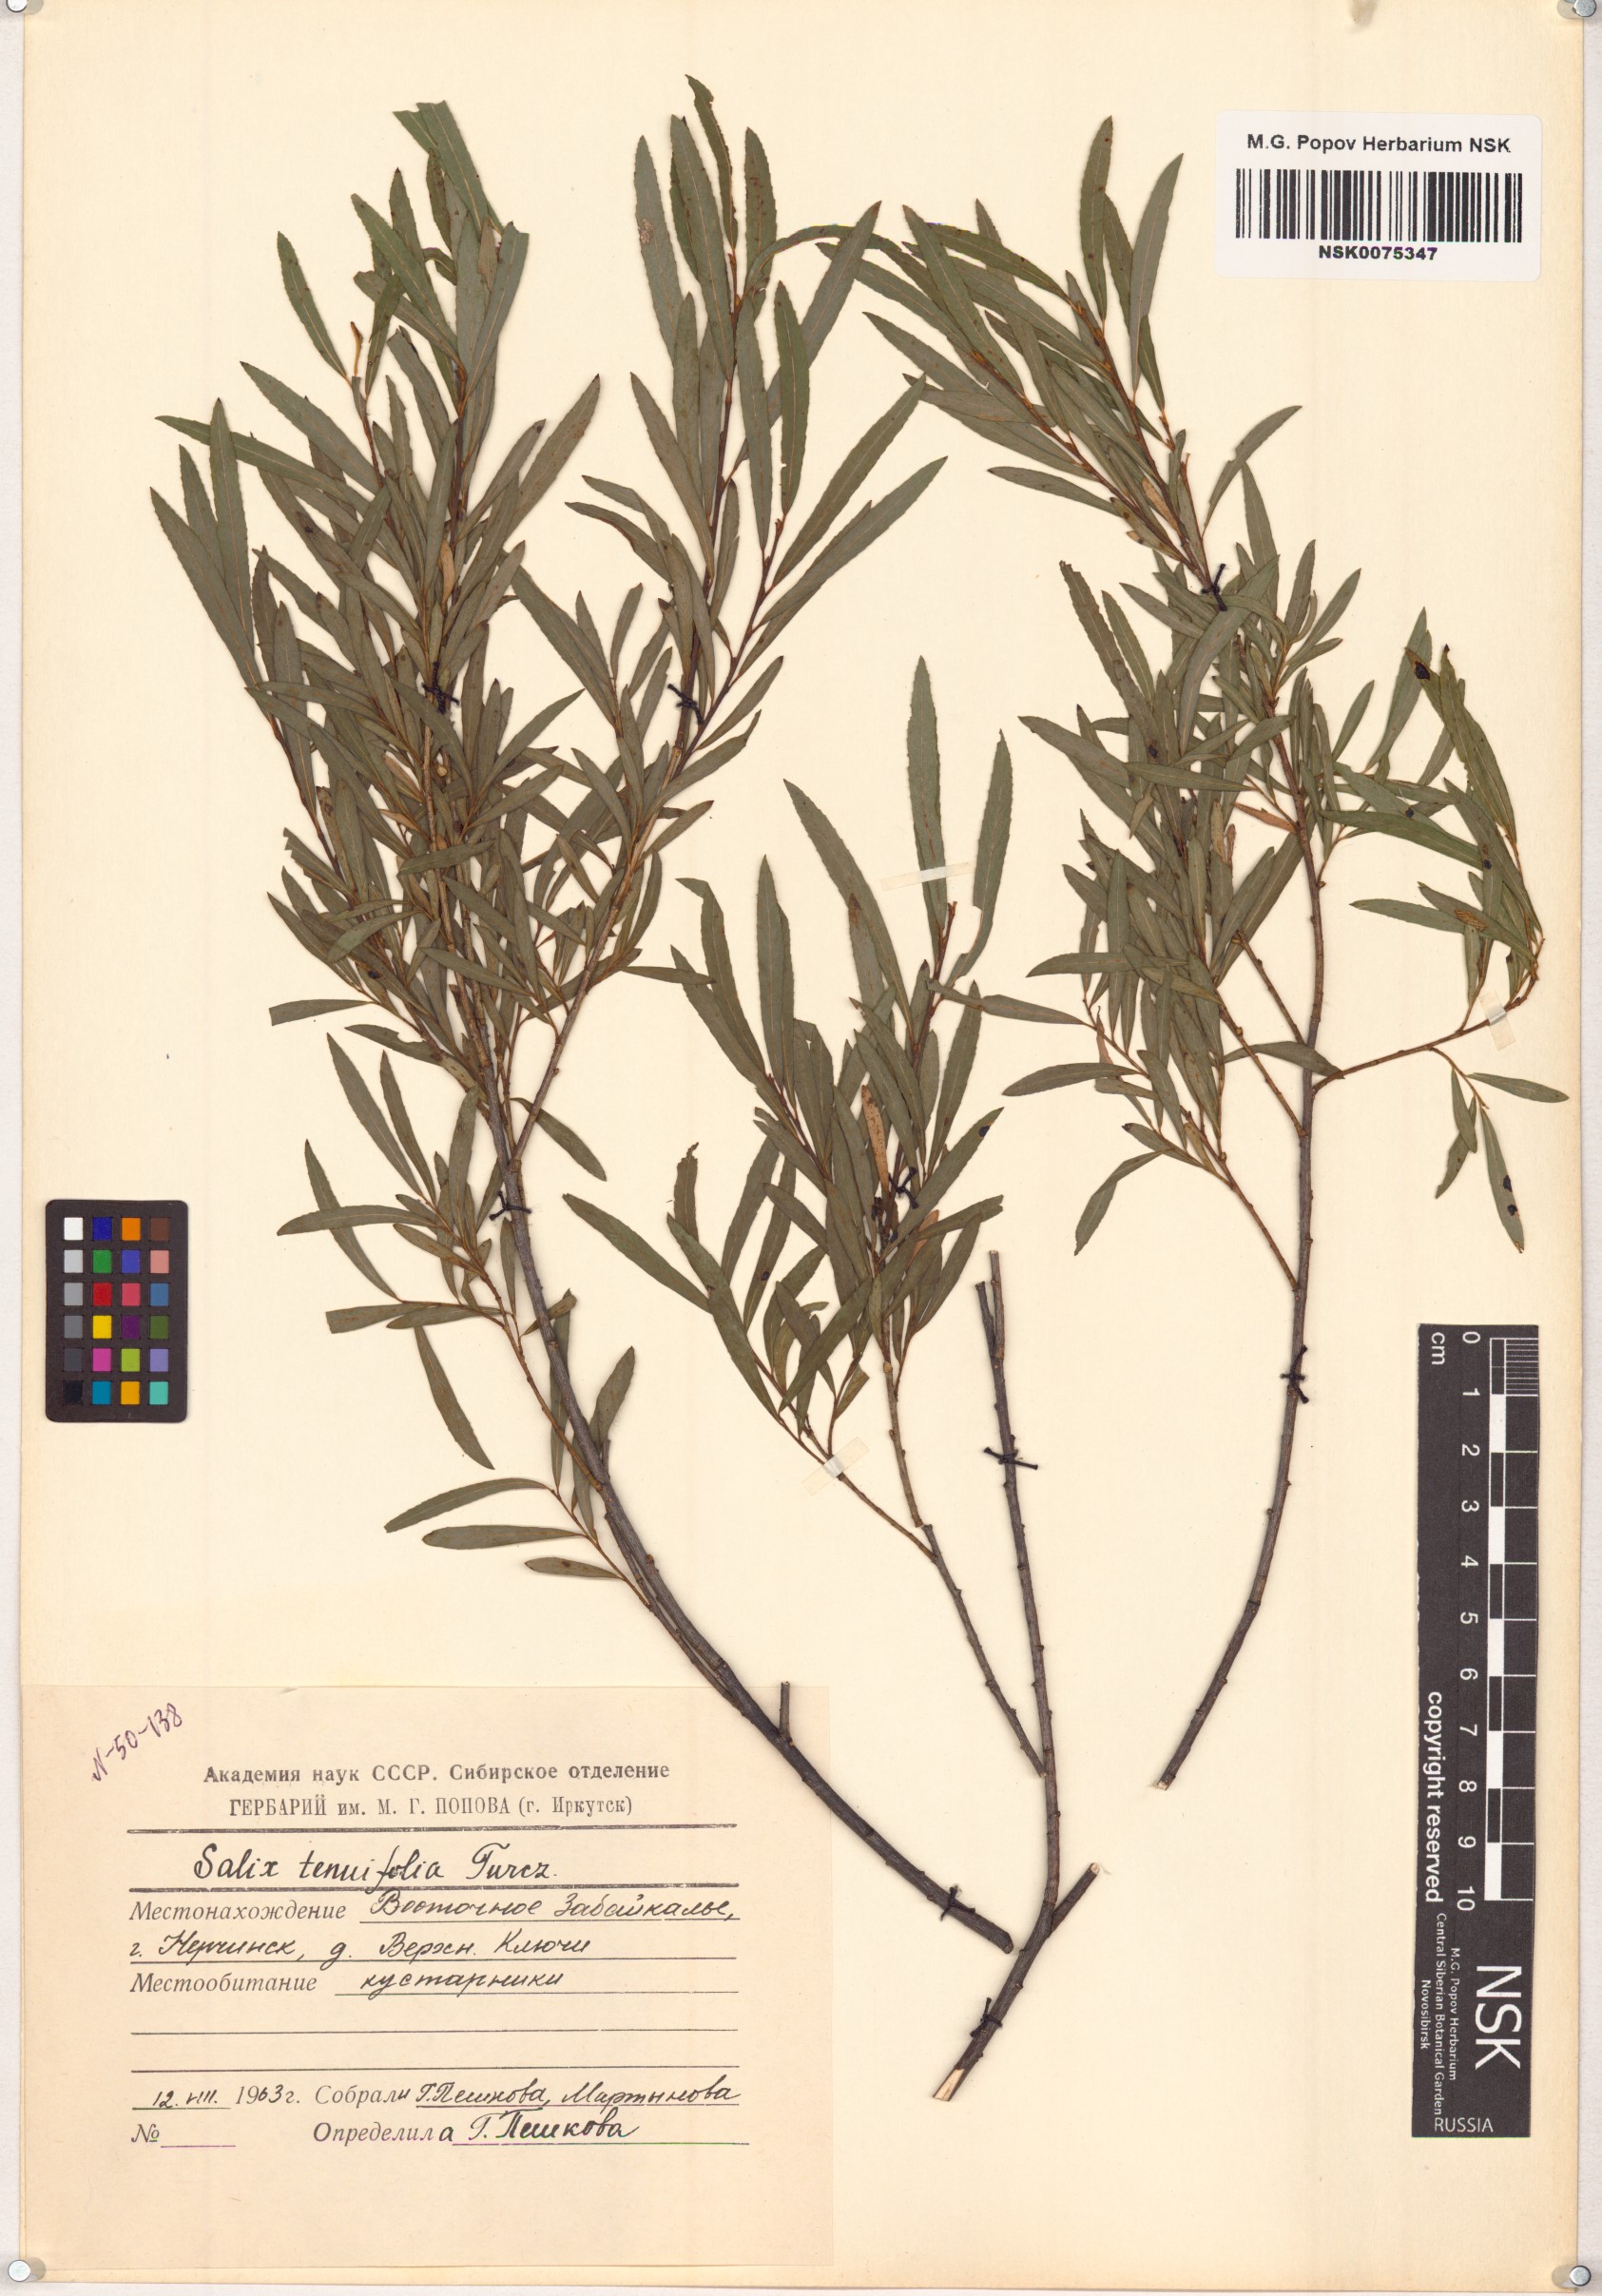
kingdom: Plantae
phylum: Tracheophyta
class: Magnoliopsida
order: Malpighiales
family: Salicaceae
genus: Salix
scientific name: Salix
